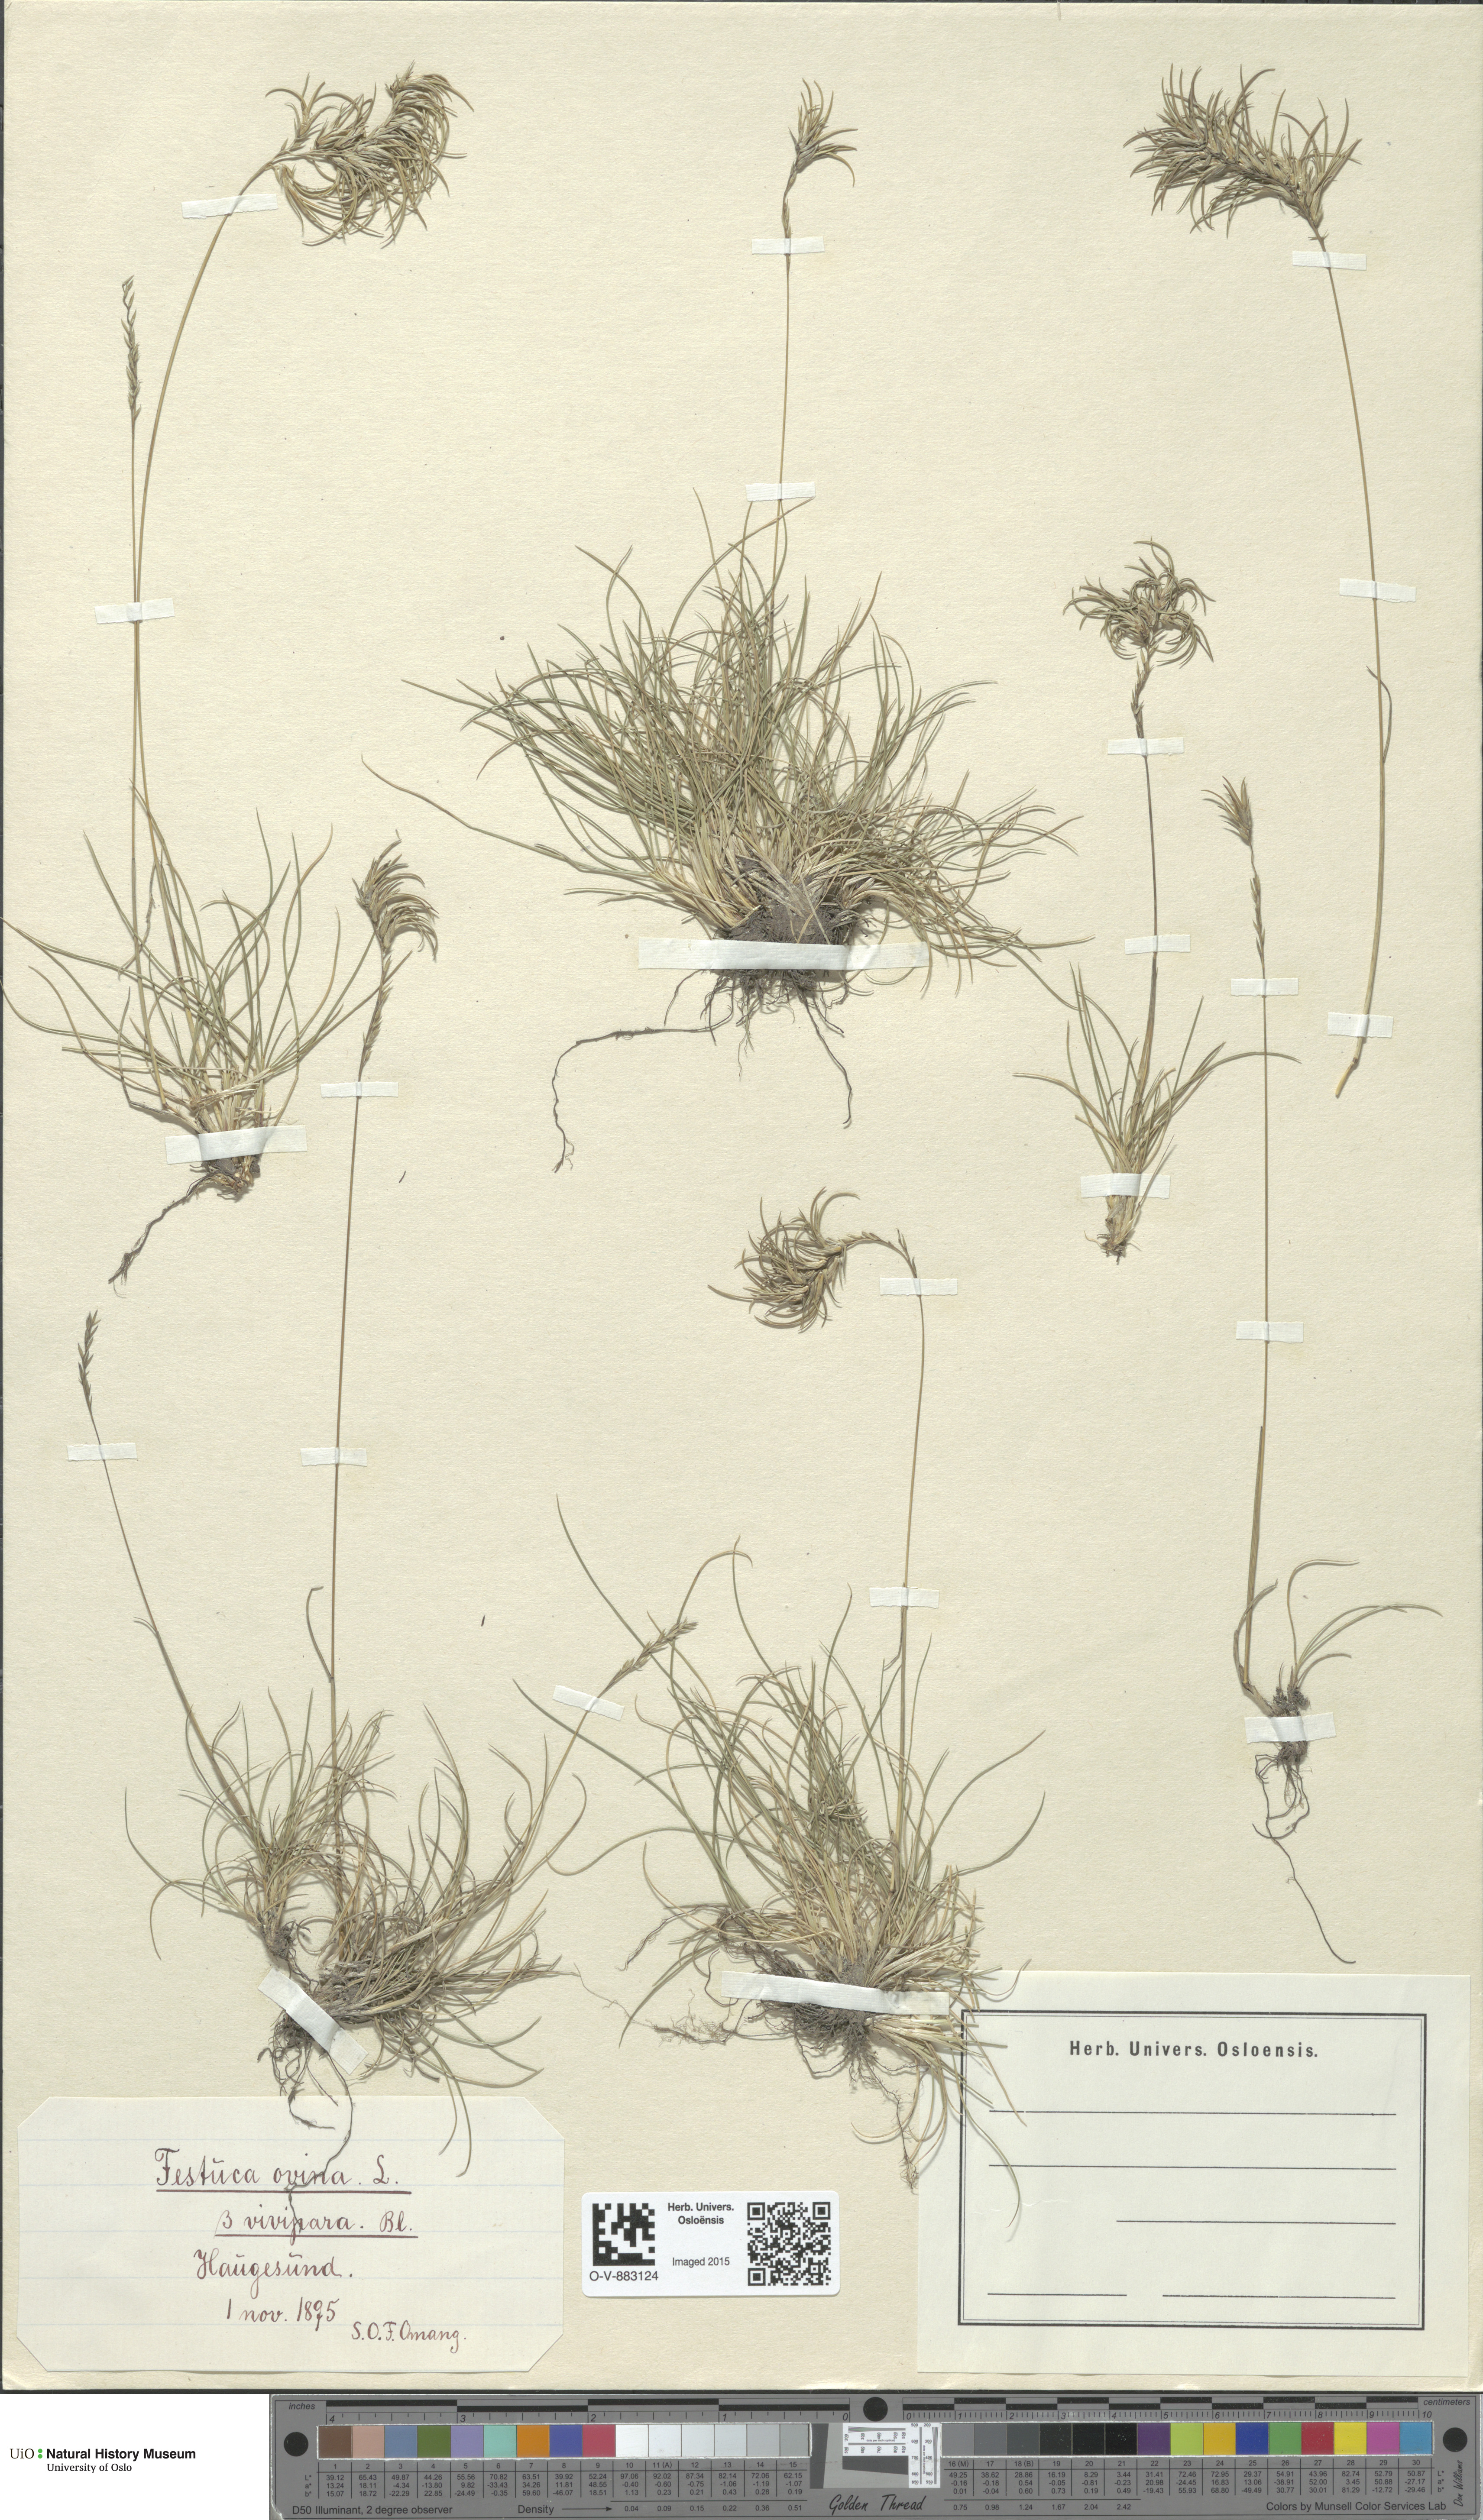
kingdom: Plantae
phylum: Tracheophyta
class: Liliopsida
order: Poales
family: Poaceae
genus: Festuca
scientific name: Festuca vivipara
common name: Viviparous sheep's-fescue
